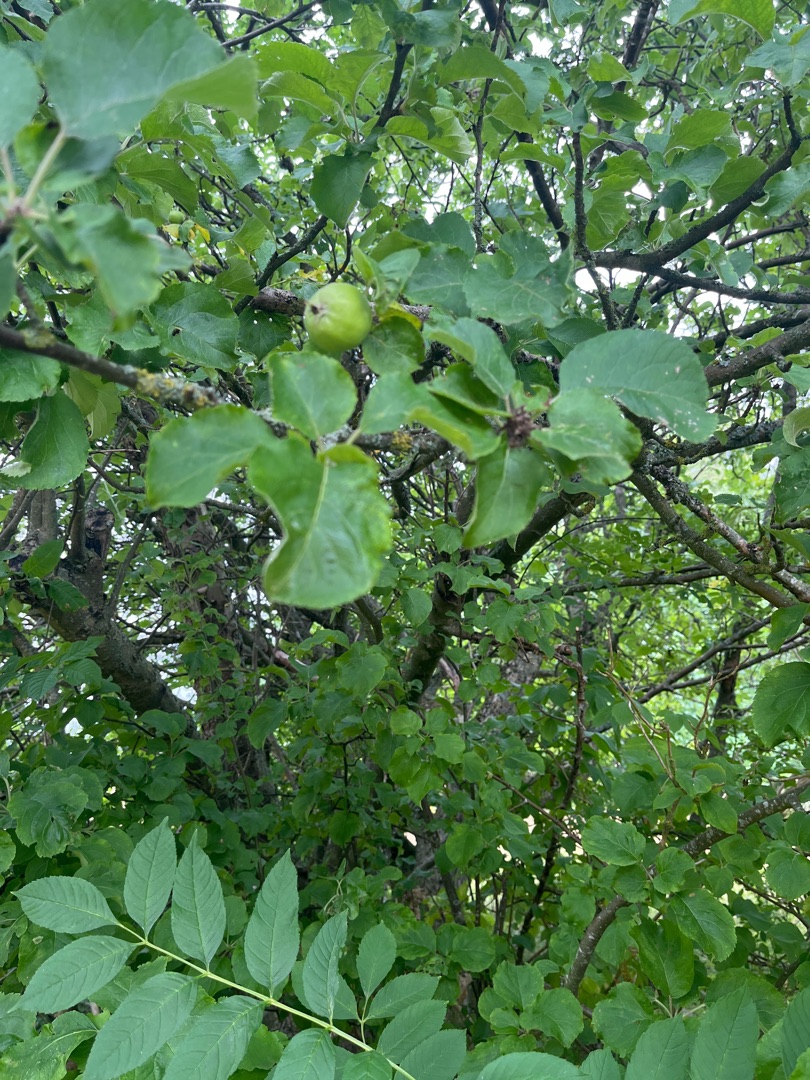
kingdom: Plantae
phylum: Tracheophyta
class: Magnoliopsida
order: Rosales
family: Rosaceae
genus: Malus
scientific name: Malus
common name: Æbleslægten
